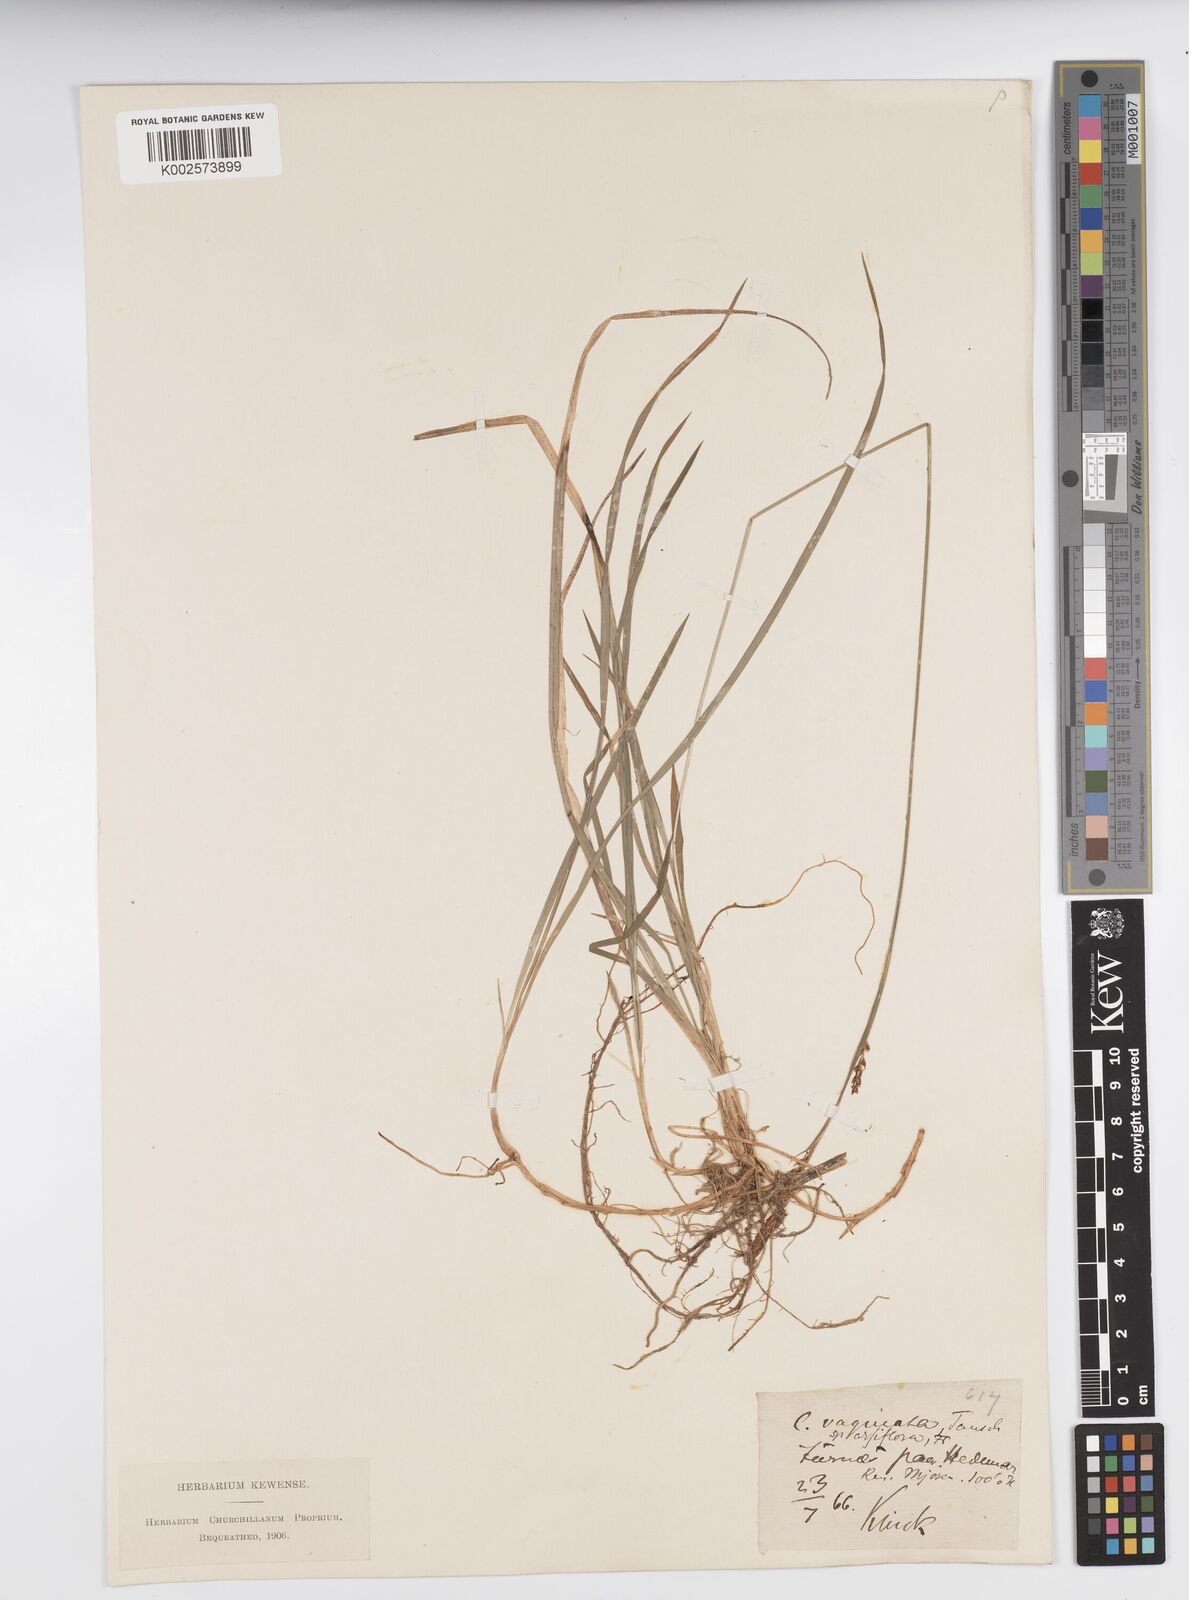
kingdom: Plantae
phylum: Tracheophyta
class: Liliopsida
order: Poales
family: Cyperaceae
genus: Carex
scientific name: Carex vaginata
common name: Sheathed sedge
